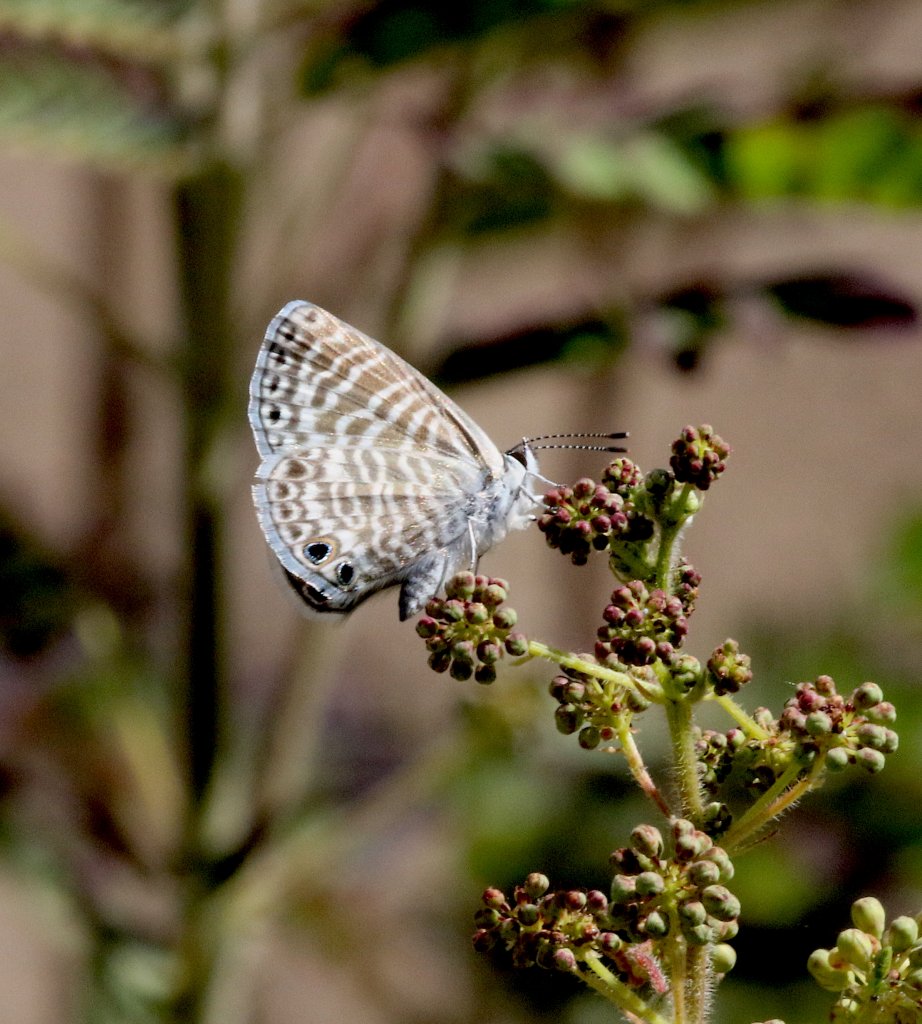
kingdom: Animalia
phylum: Arthropoda
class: Insecta
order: Lepidoptera
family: Lycaenidae
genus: Leptotes
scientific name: Leptotes marina
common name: Marine Blue
